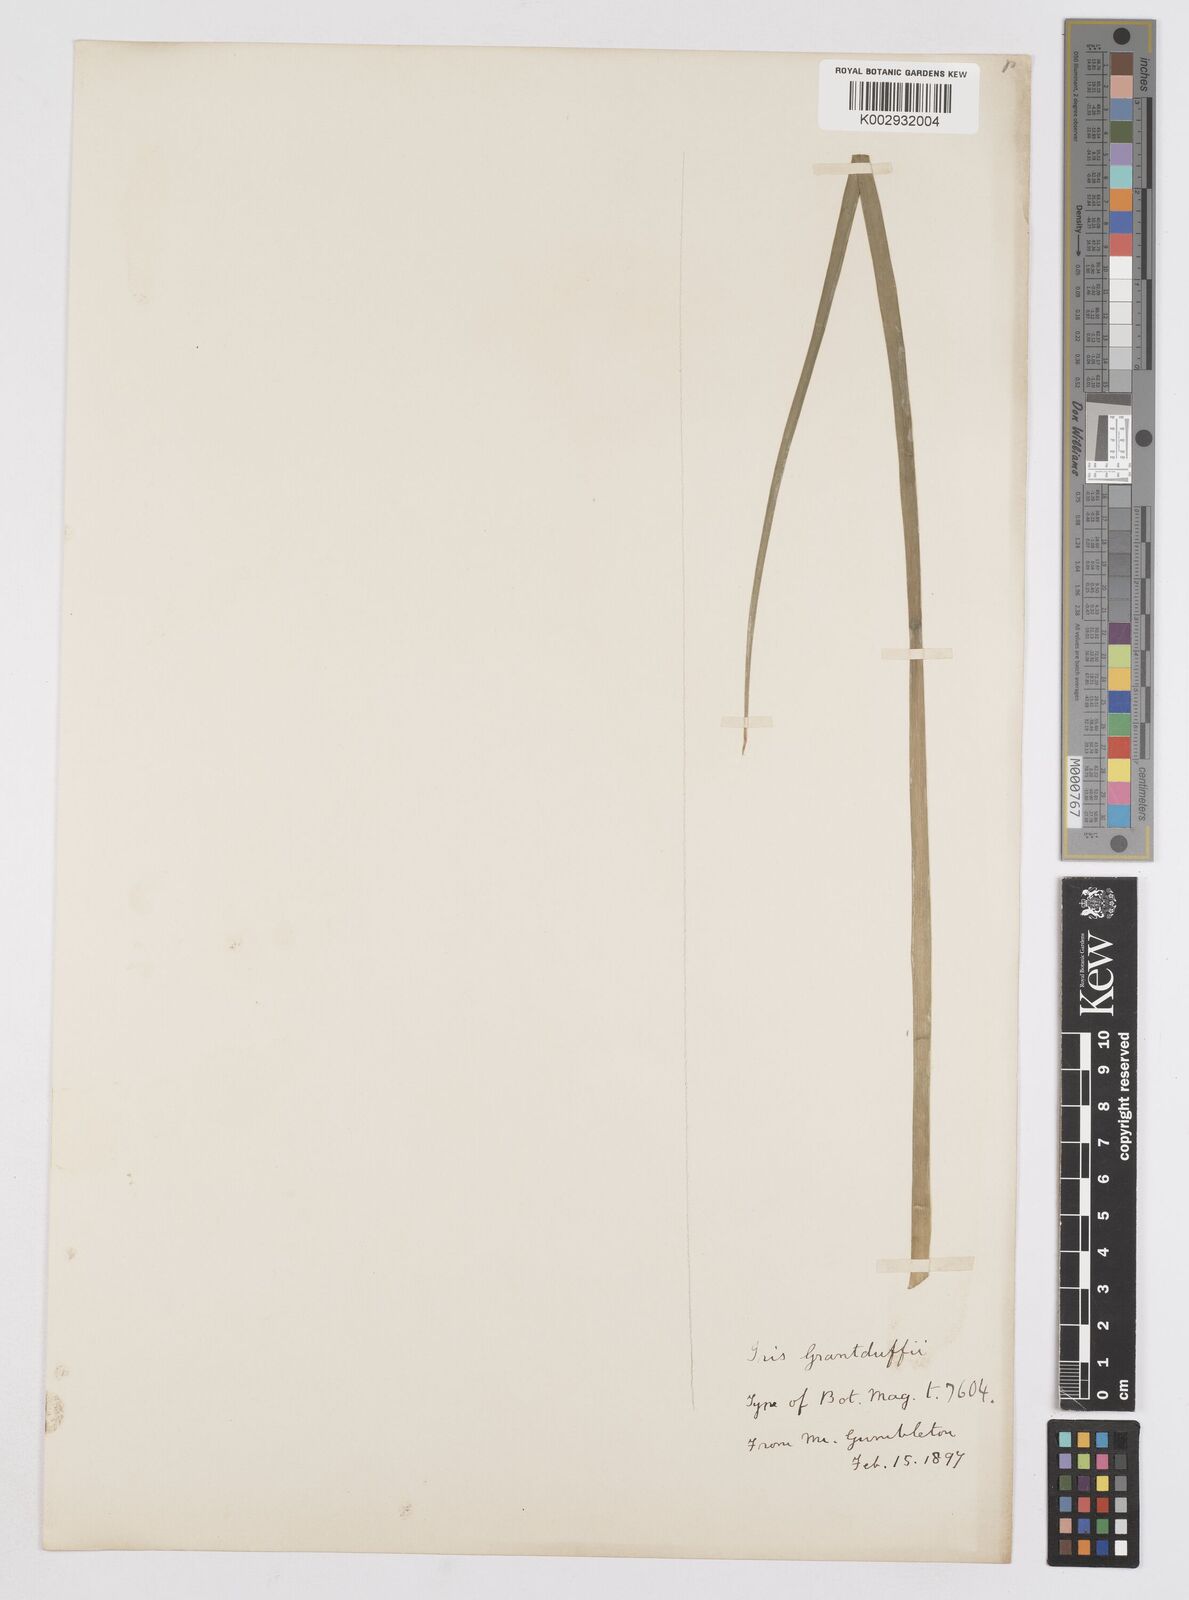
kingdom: Plantae
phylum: Tracheophyta
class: Liliopsida
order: Asparagales
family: Iridaceae
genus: Iris
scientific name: Iris grant-duffii
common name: Grant duff's iris
